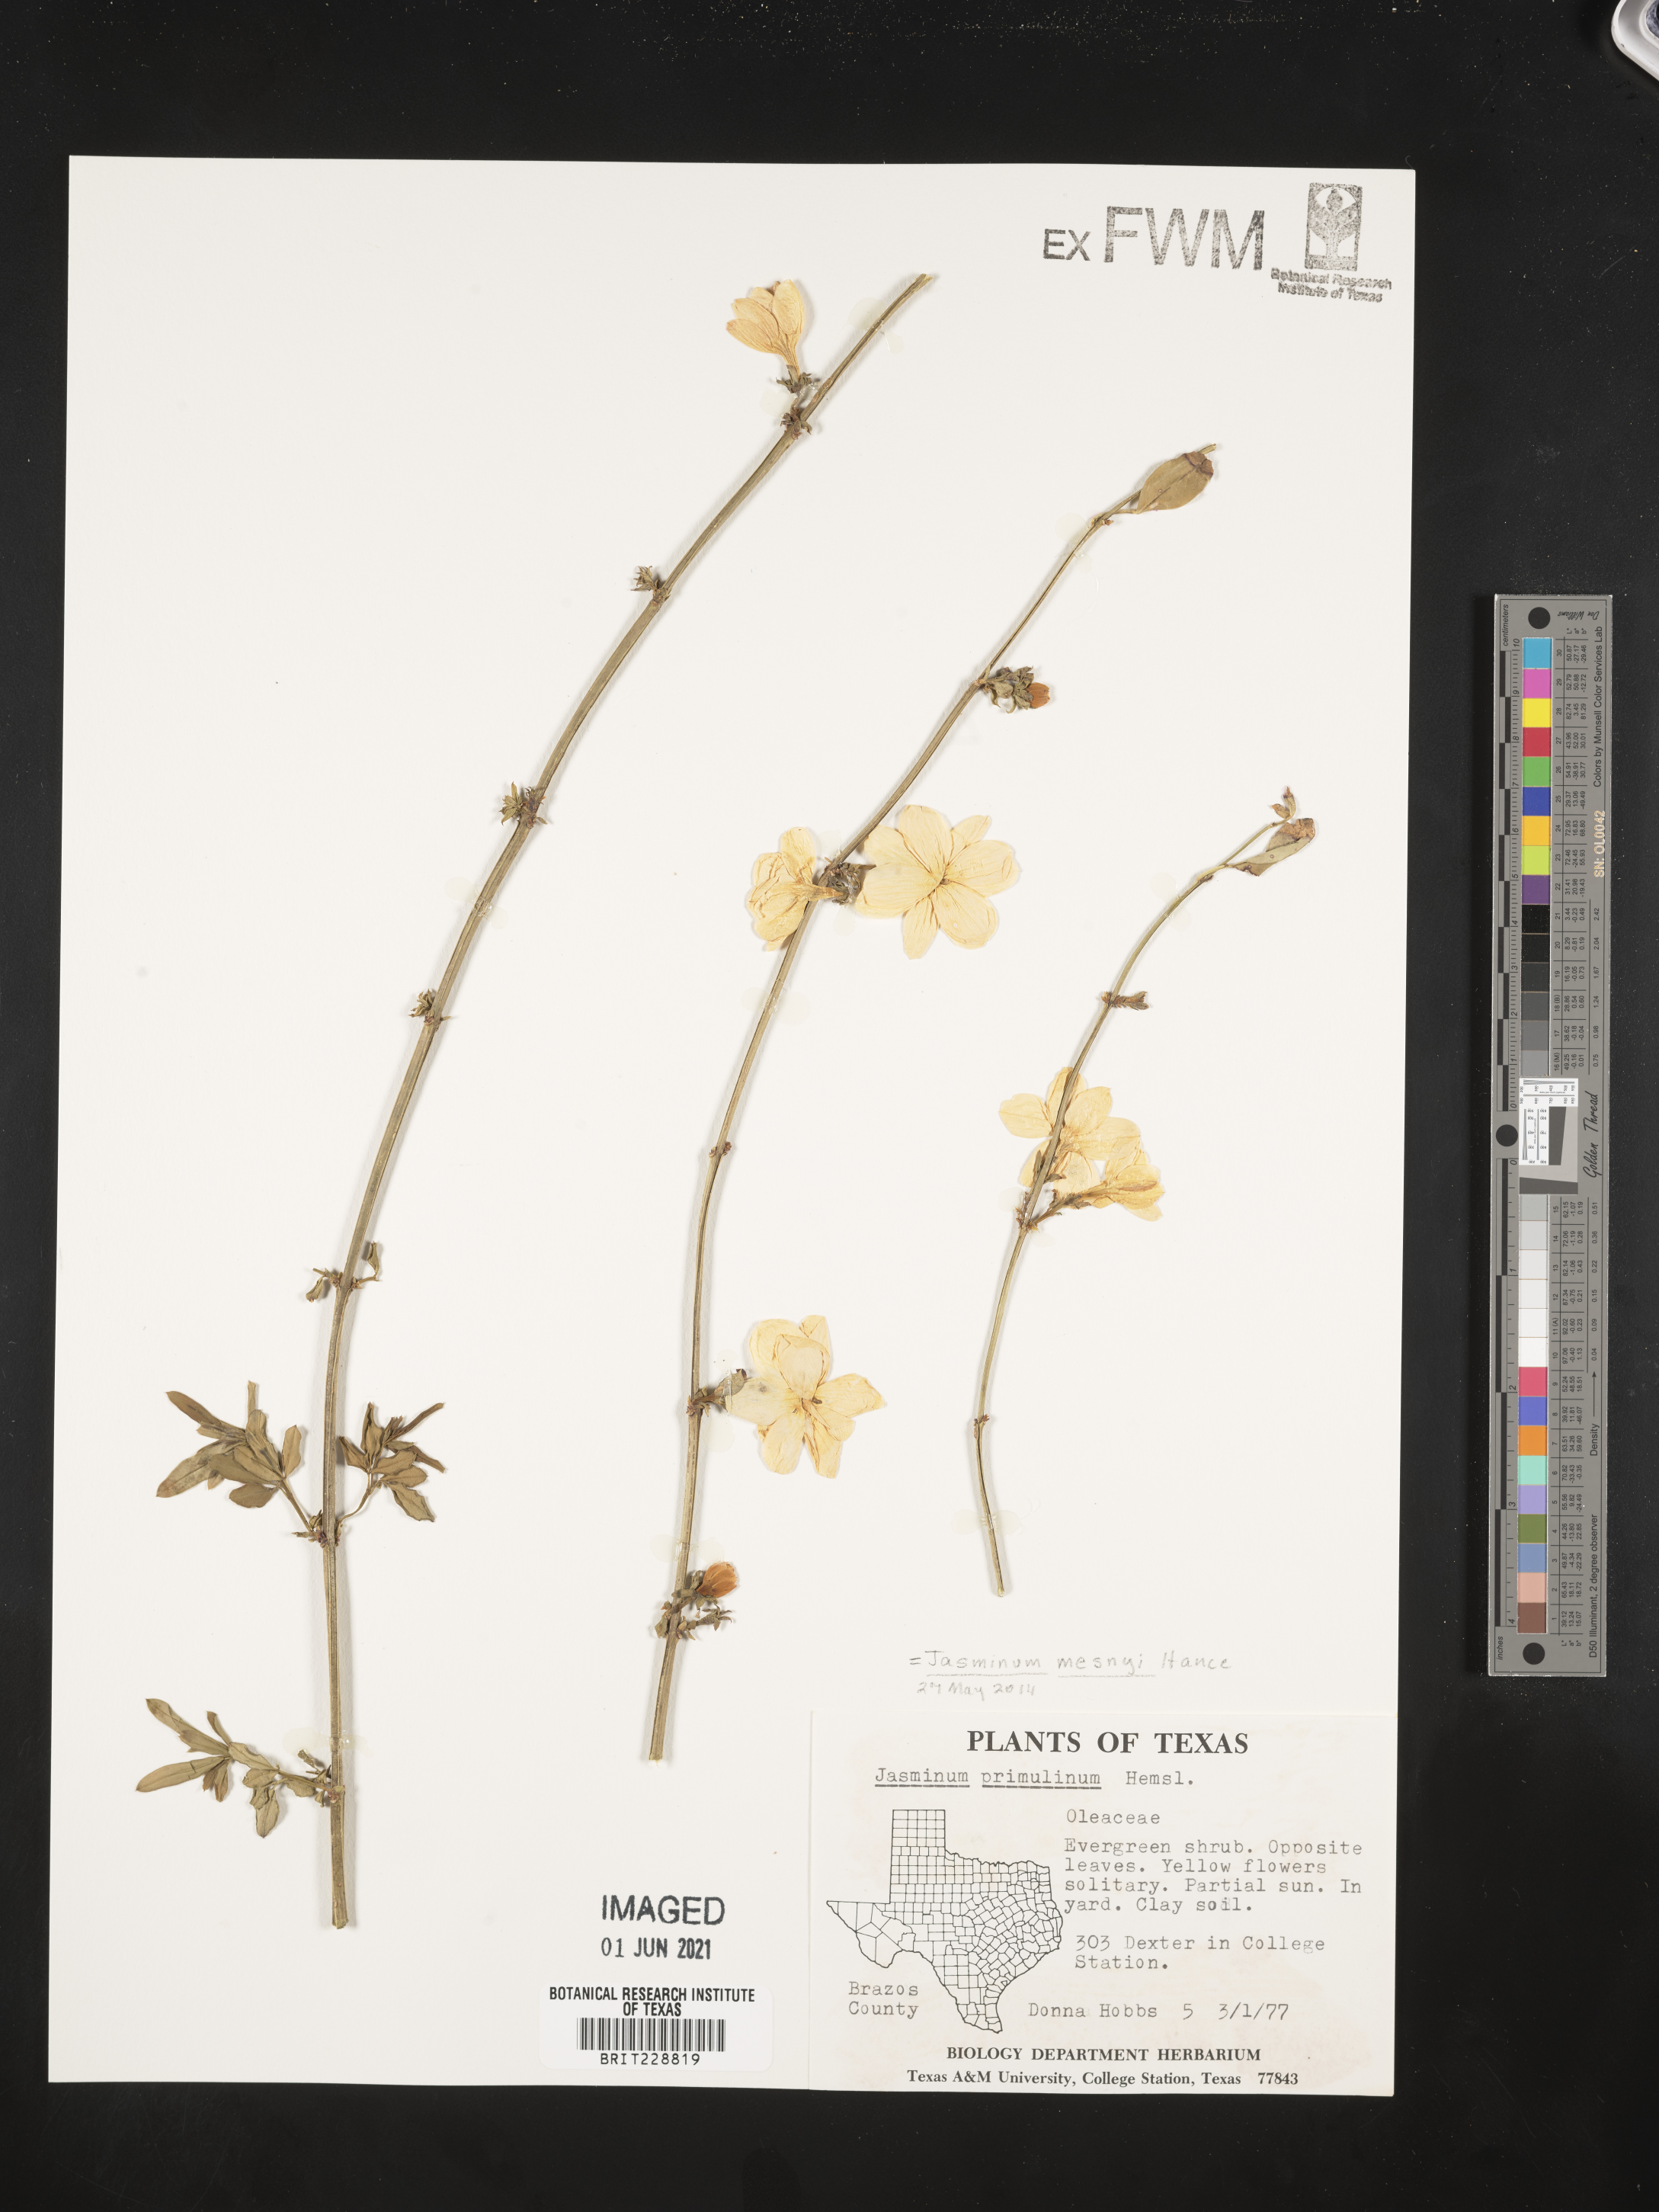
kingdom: Plantae
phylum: Tracheophyta
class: Magnoliopsida
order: Lamiales
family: Oleaceae
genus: Jasminum
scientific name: Jasminum mesnyi
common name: Japanese jasmine
